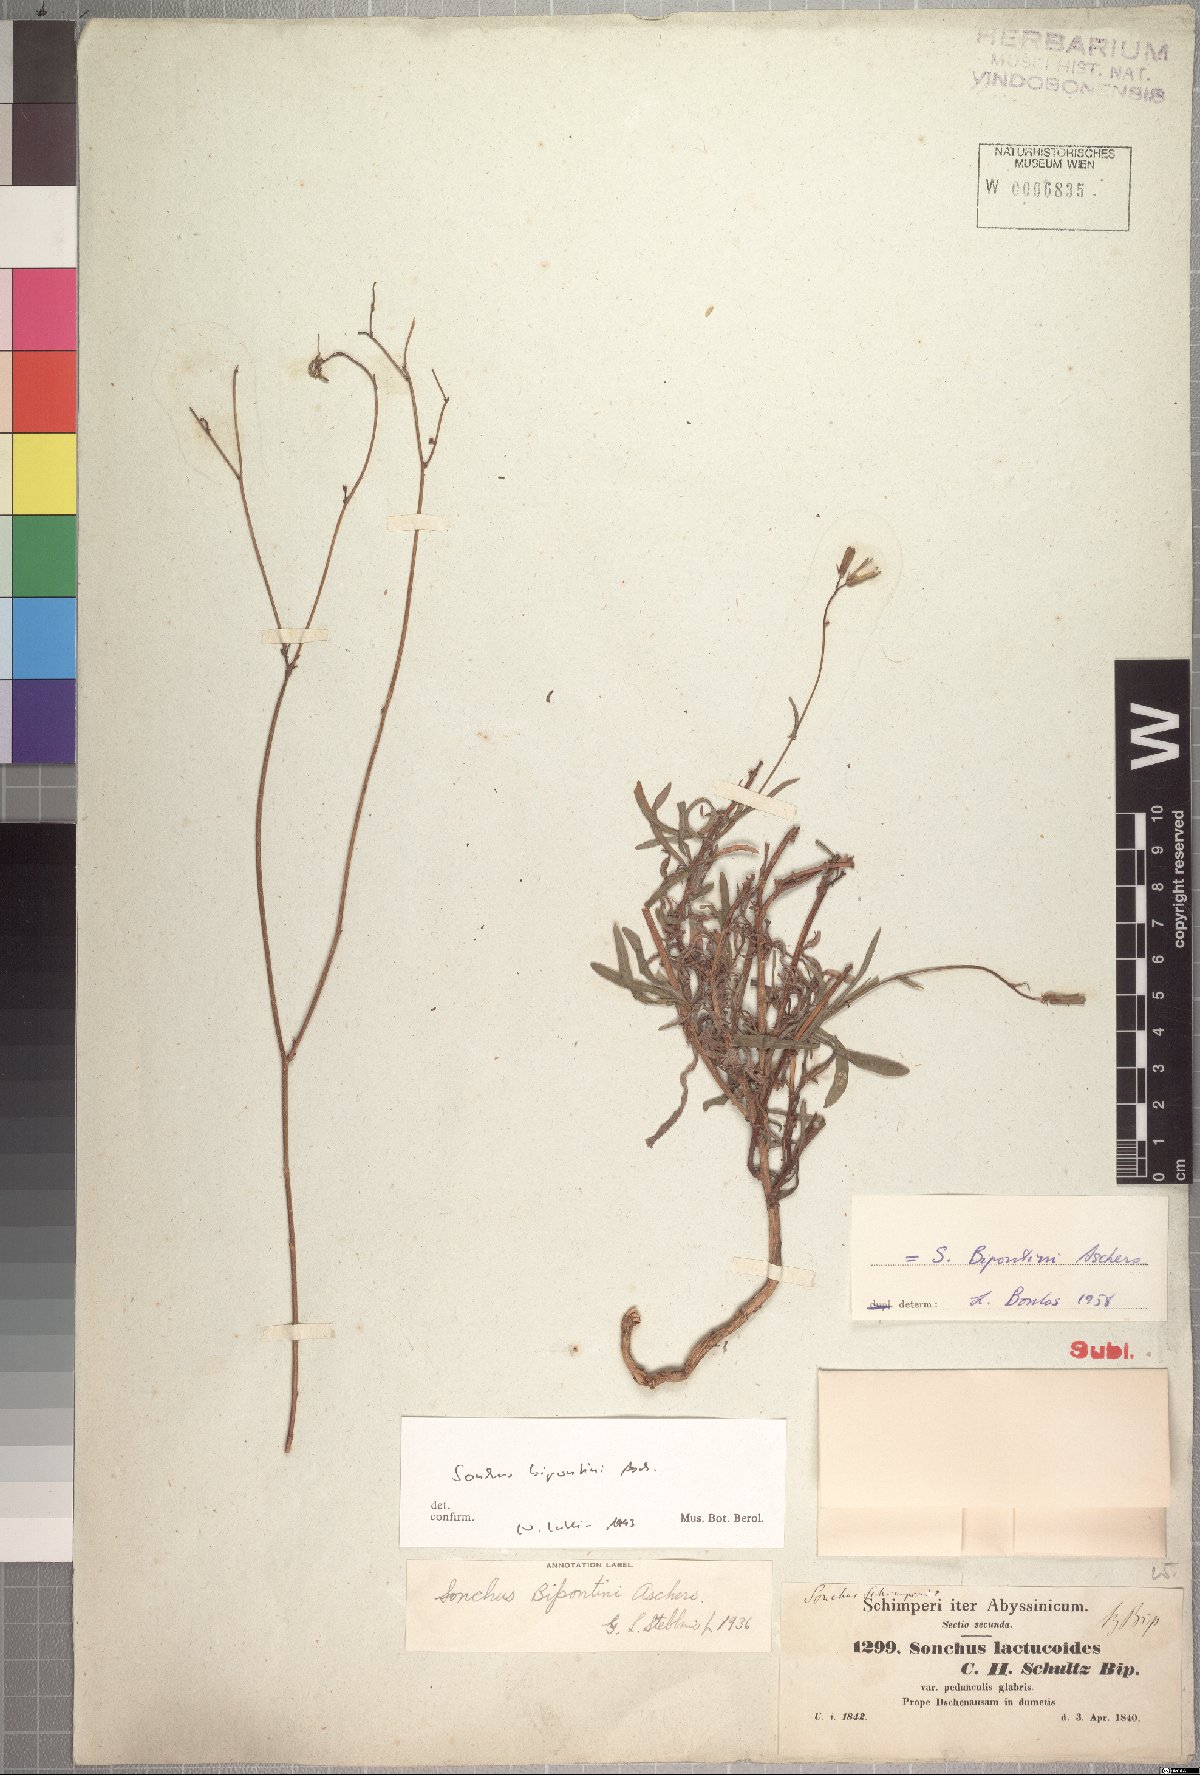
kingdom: Plantae
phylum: Tracheophyta
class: Magnoliopsida
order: Asterales
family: Asteraceae
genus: Sonchus
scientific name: Sonchus bipontini
